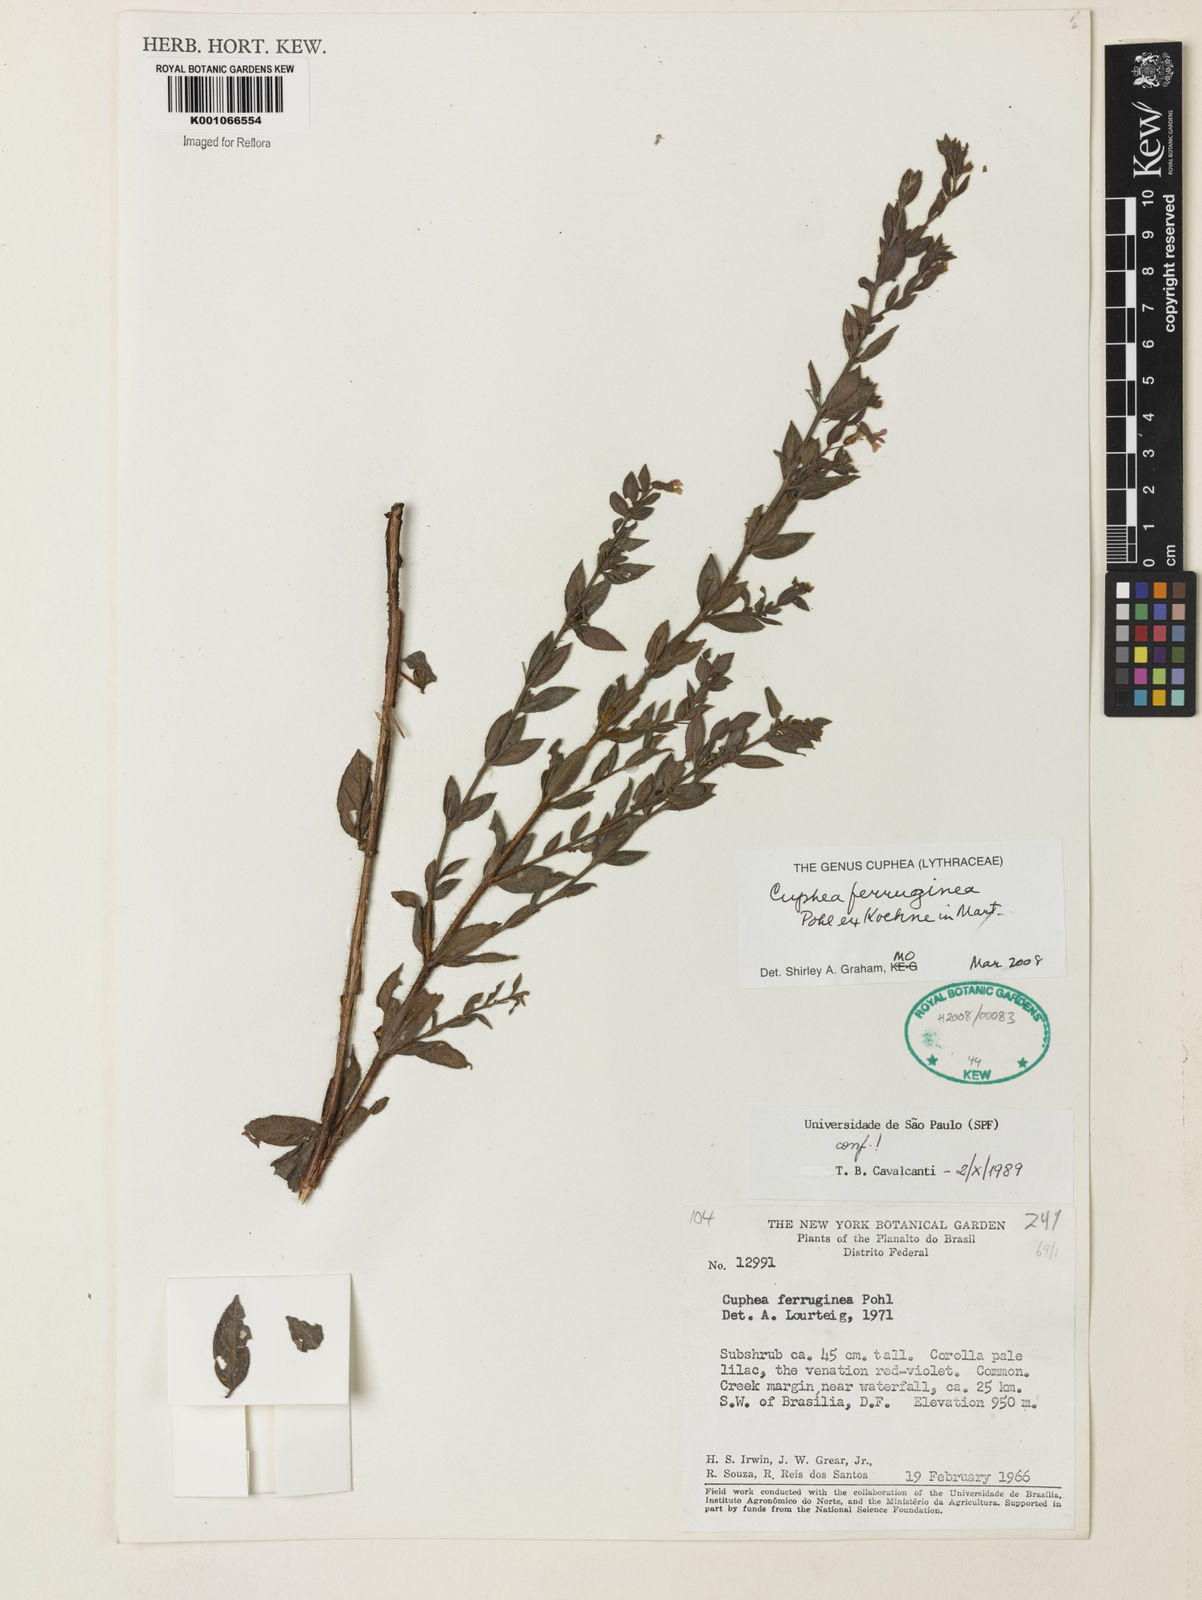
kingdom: Plantae
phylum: Tracheophyta
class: Magnoliopsida
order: Myrtales
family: Lythraceae
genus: Cuphea
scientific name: Cuphea ferruginea
